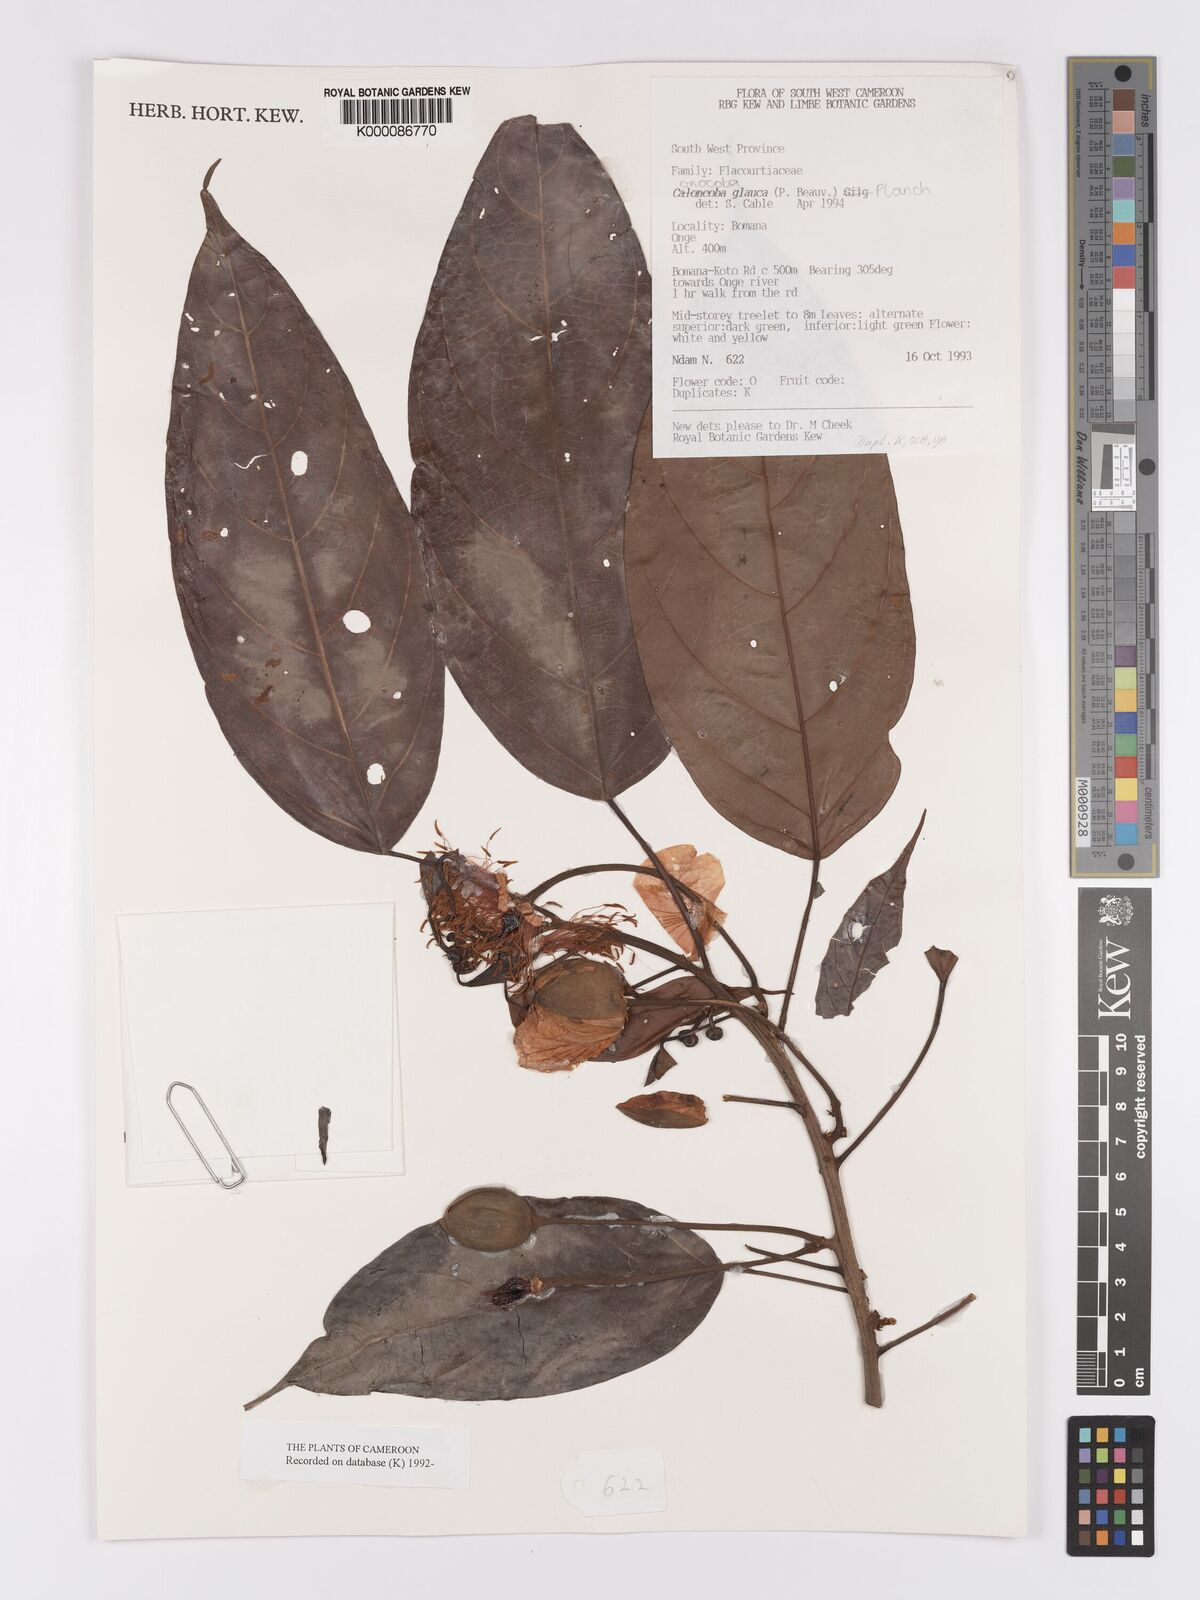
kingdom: Plantae
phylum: Tracheophyta
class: Magnoliopsida
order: Malpighiales
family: Achariaceae
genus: Caloncoba
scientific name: Caloncoba glauca
